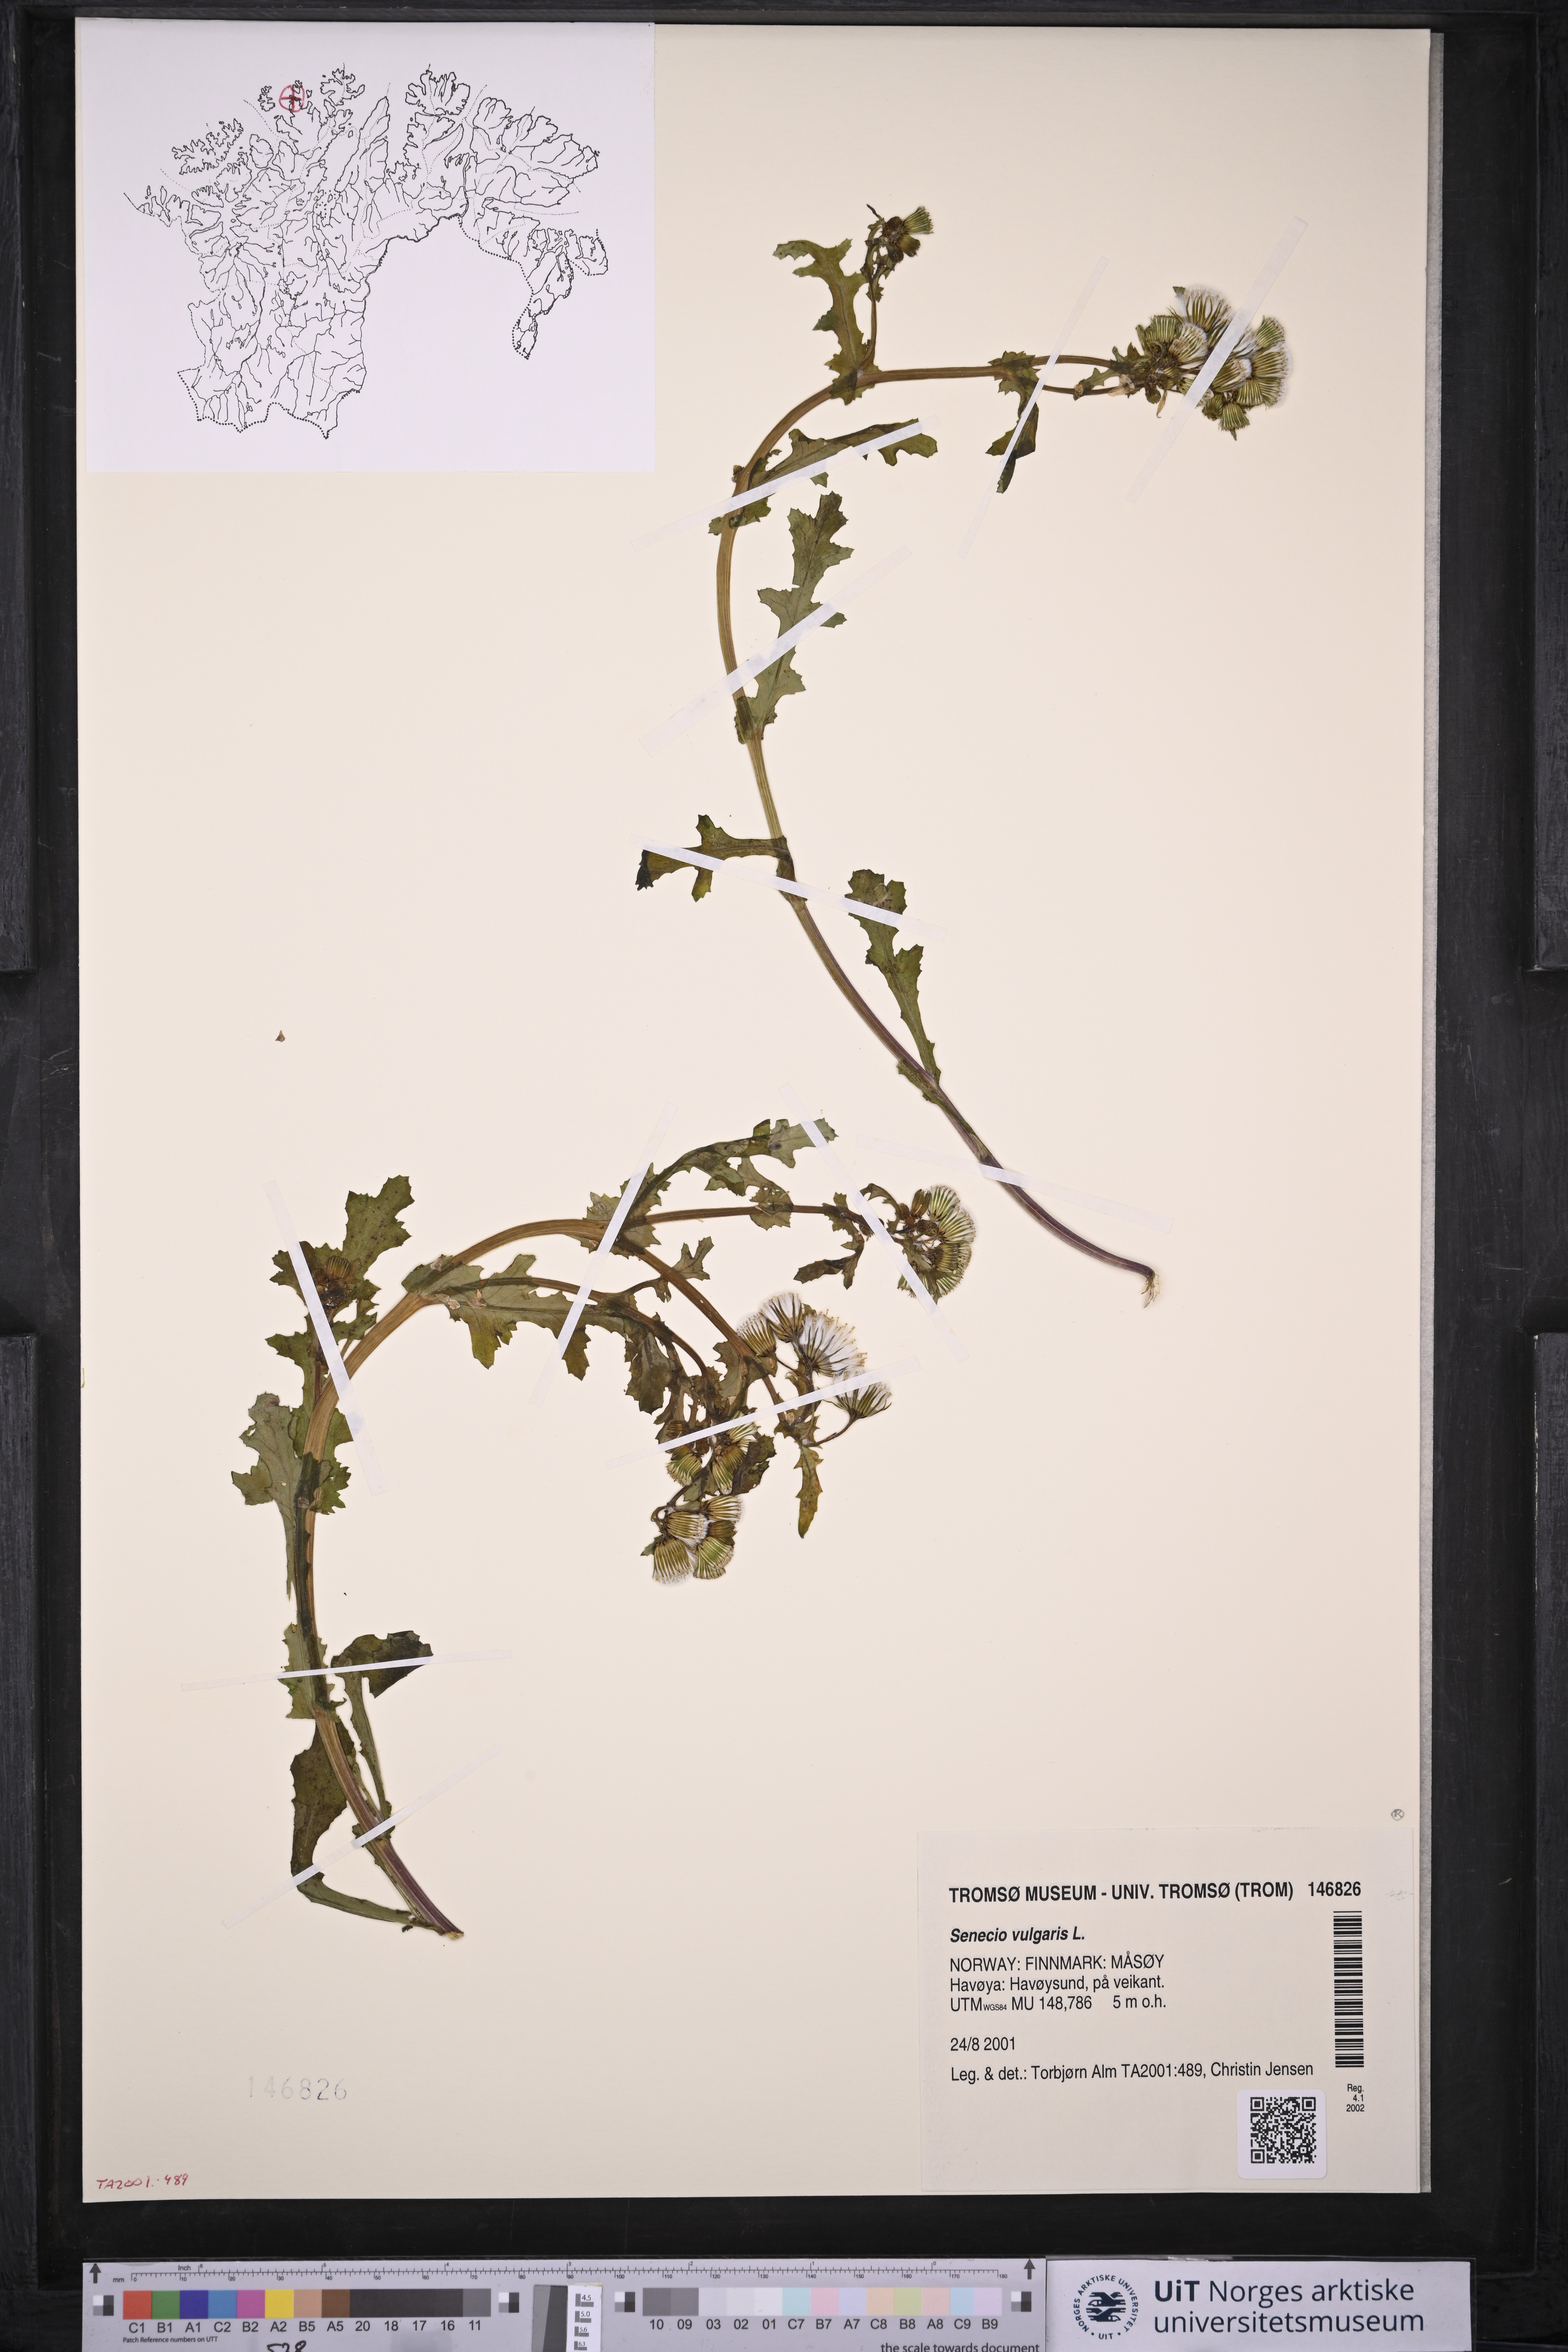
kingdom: Plantae
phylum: Tracheophyta
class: Magnoliopsida
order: Asterales
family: Asteraceae
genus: Senecio
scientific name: Senecio vulgaris
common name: Old-man-in-the-spring
